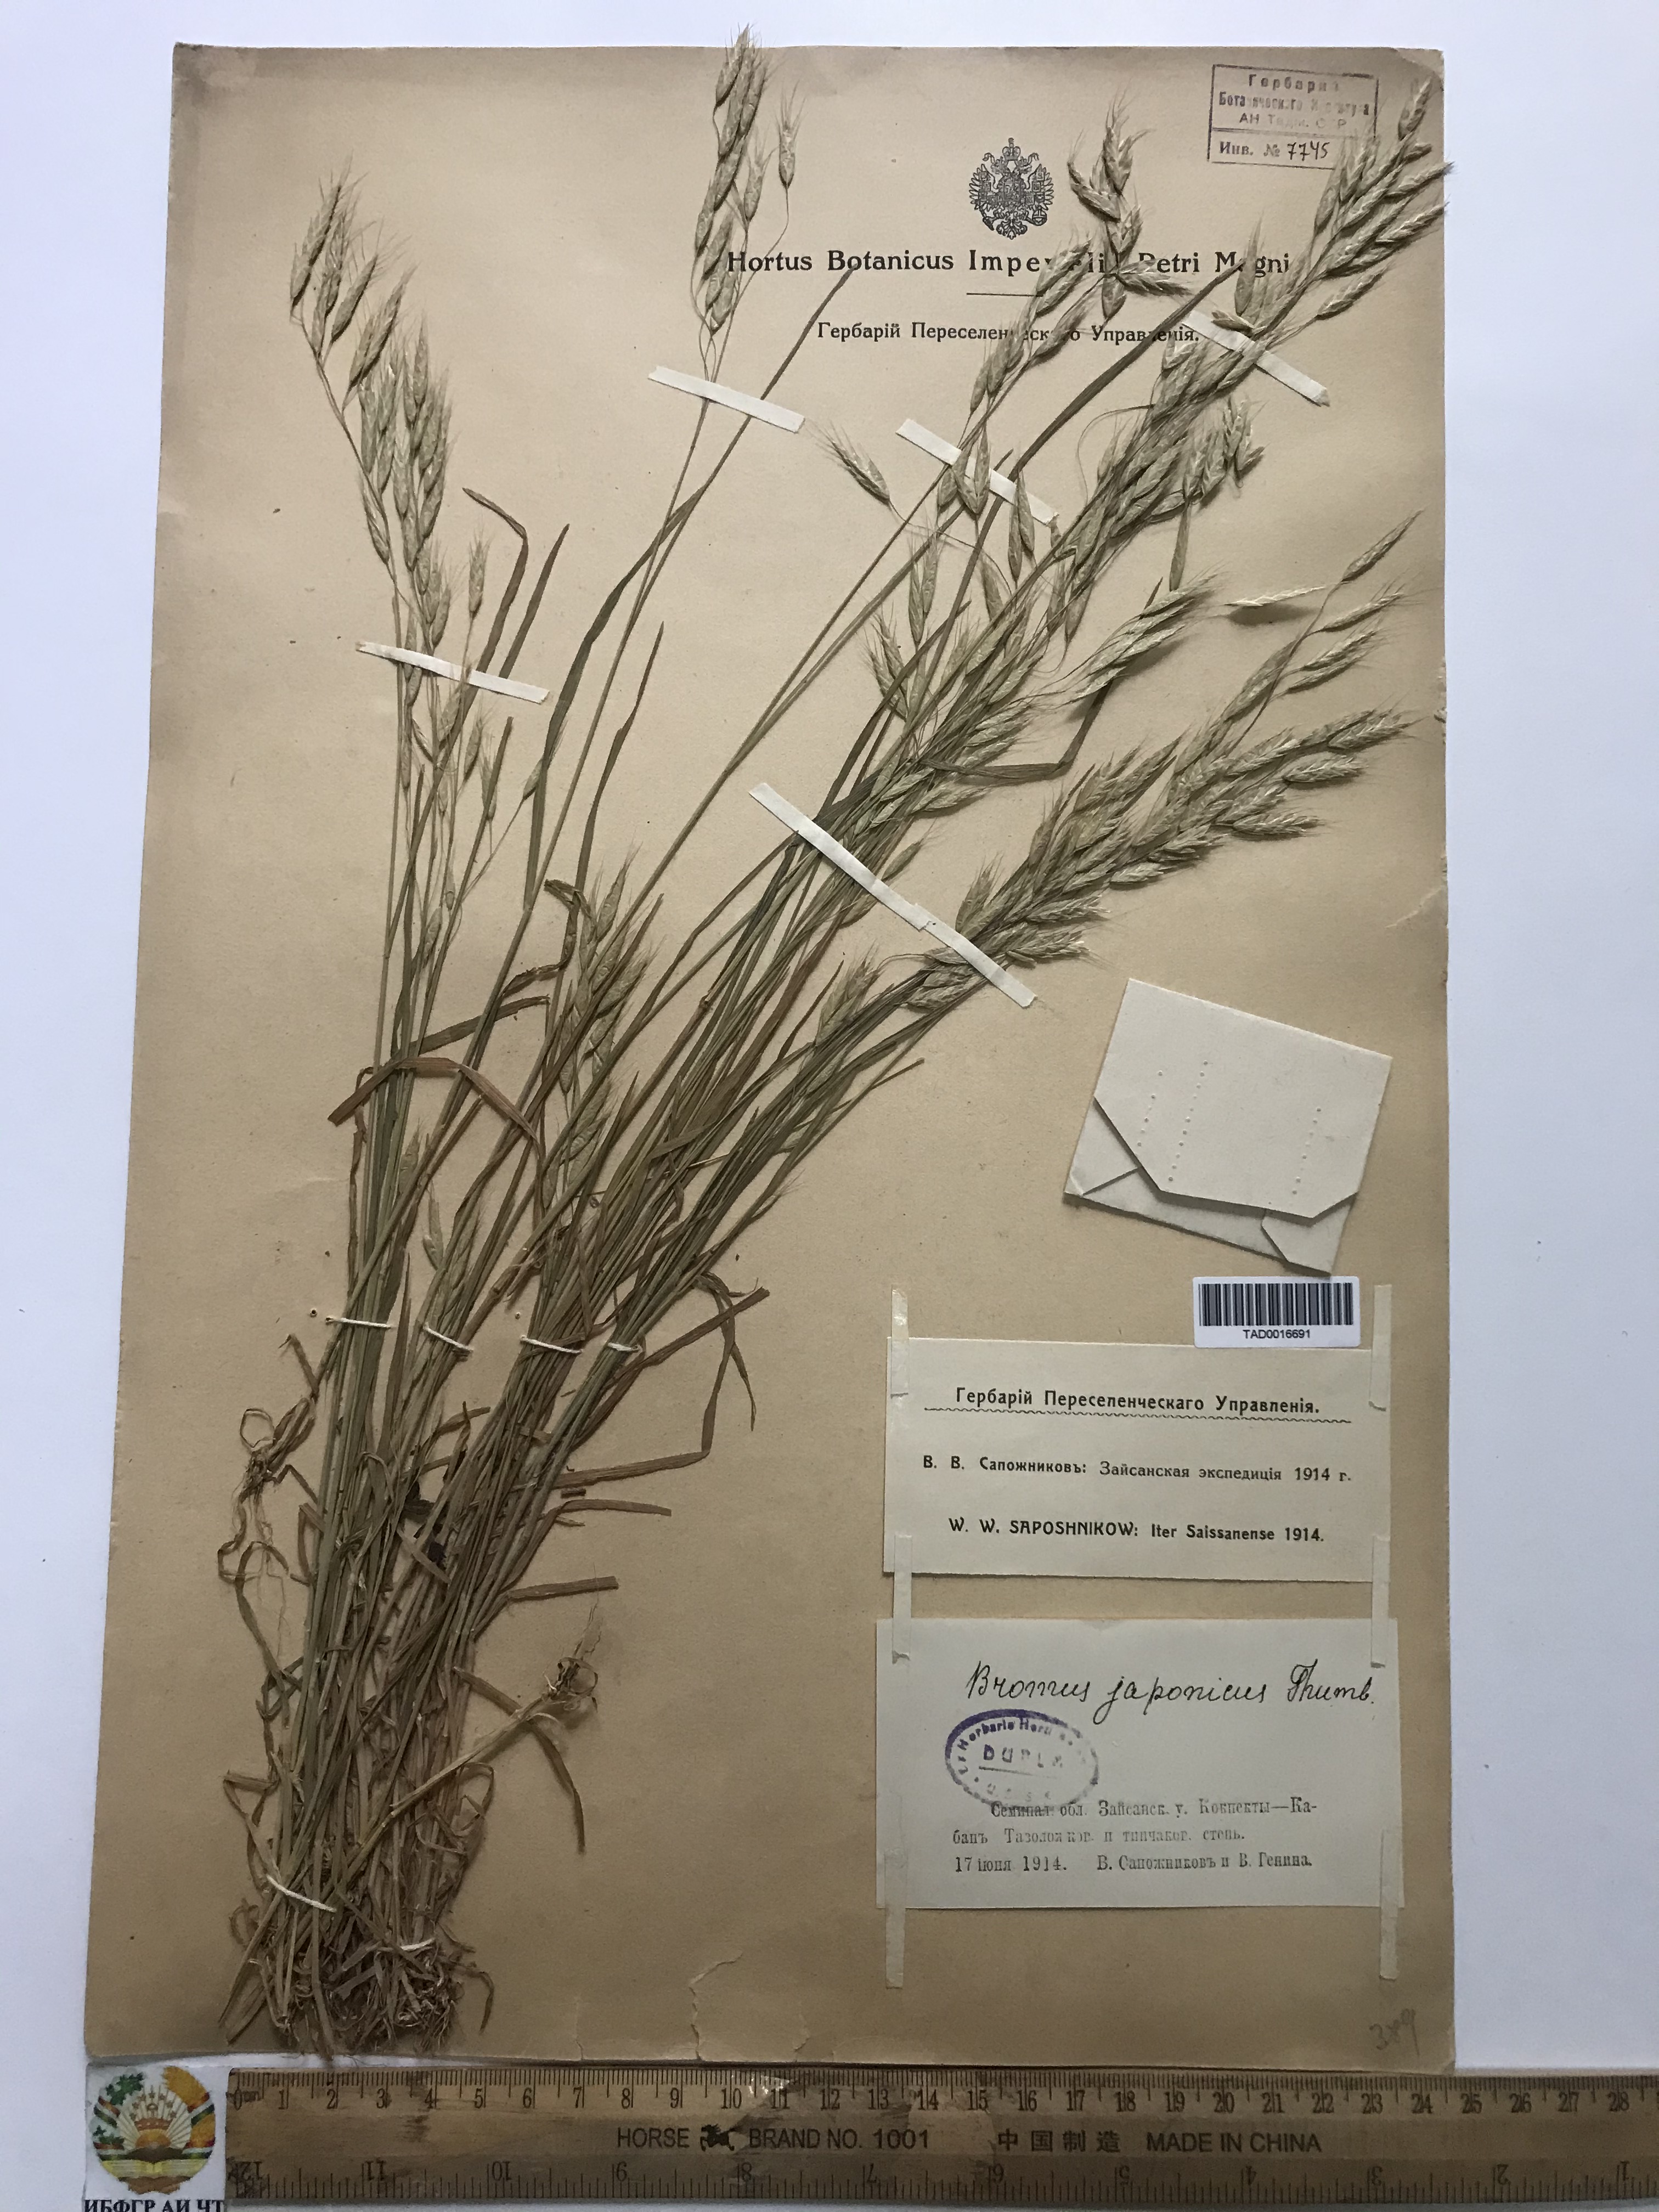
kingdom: Plantae
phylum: Tracheophyta
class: Liliopsida
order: Poales
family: Poaceae
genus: Bromus
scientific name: Bromus japonicus
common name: Japanese brome
